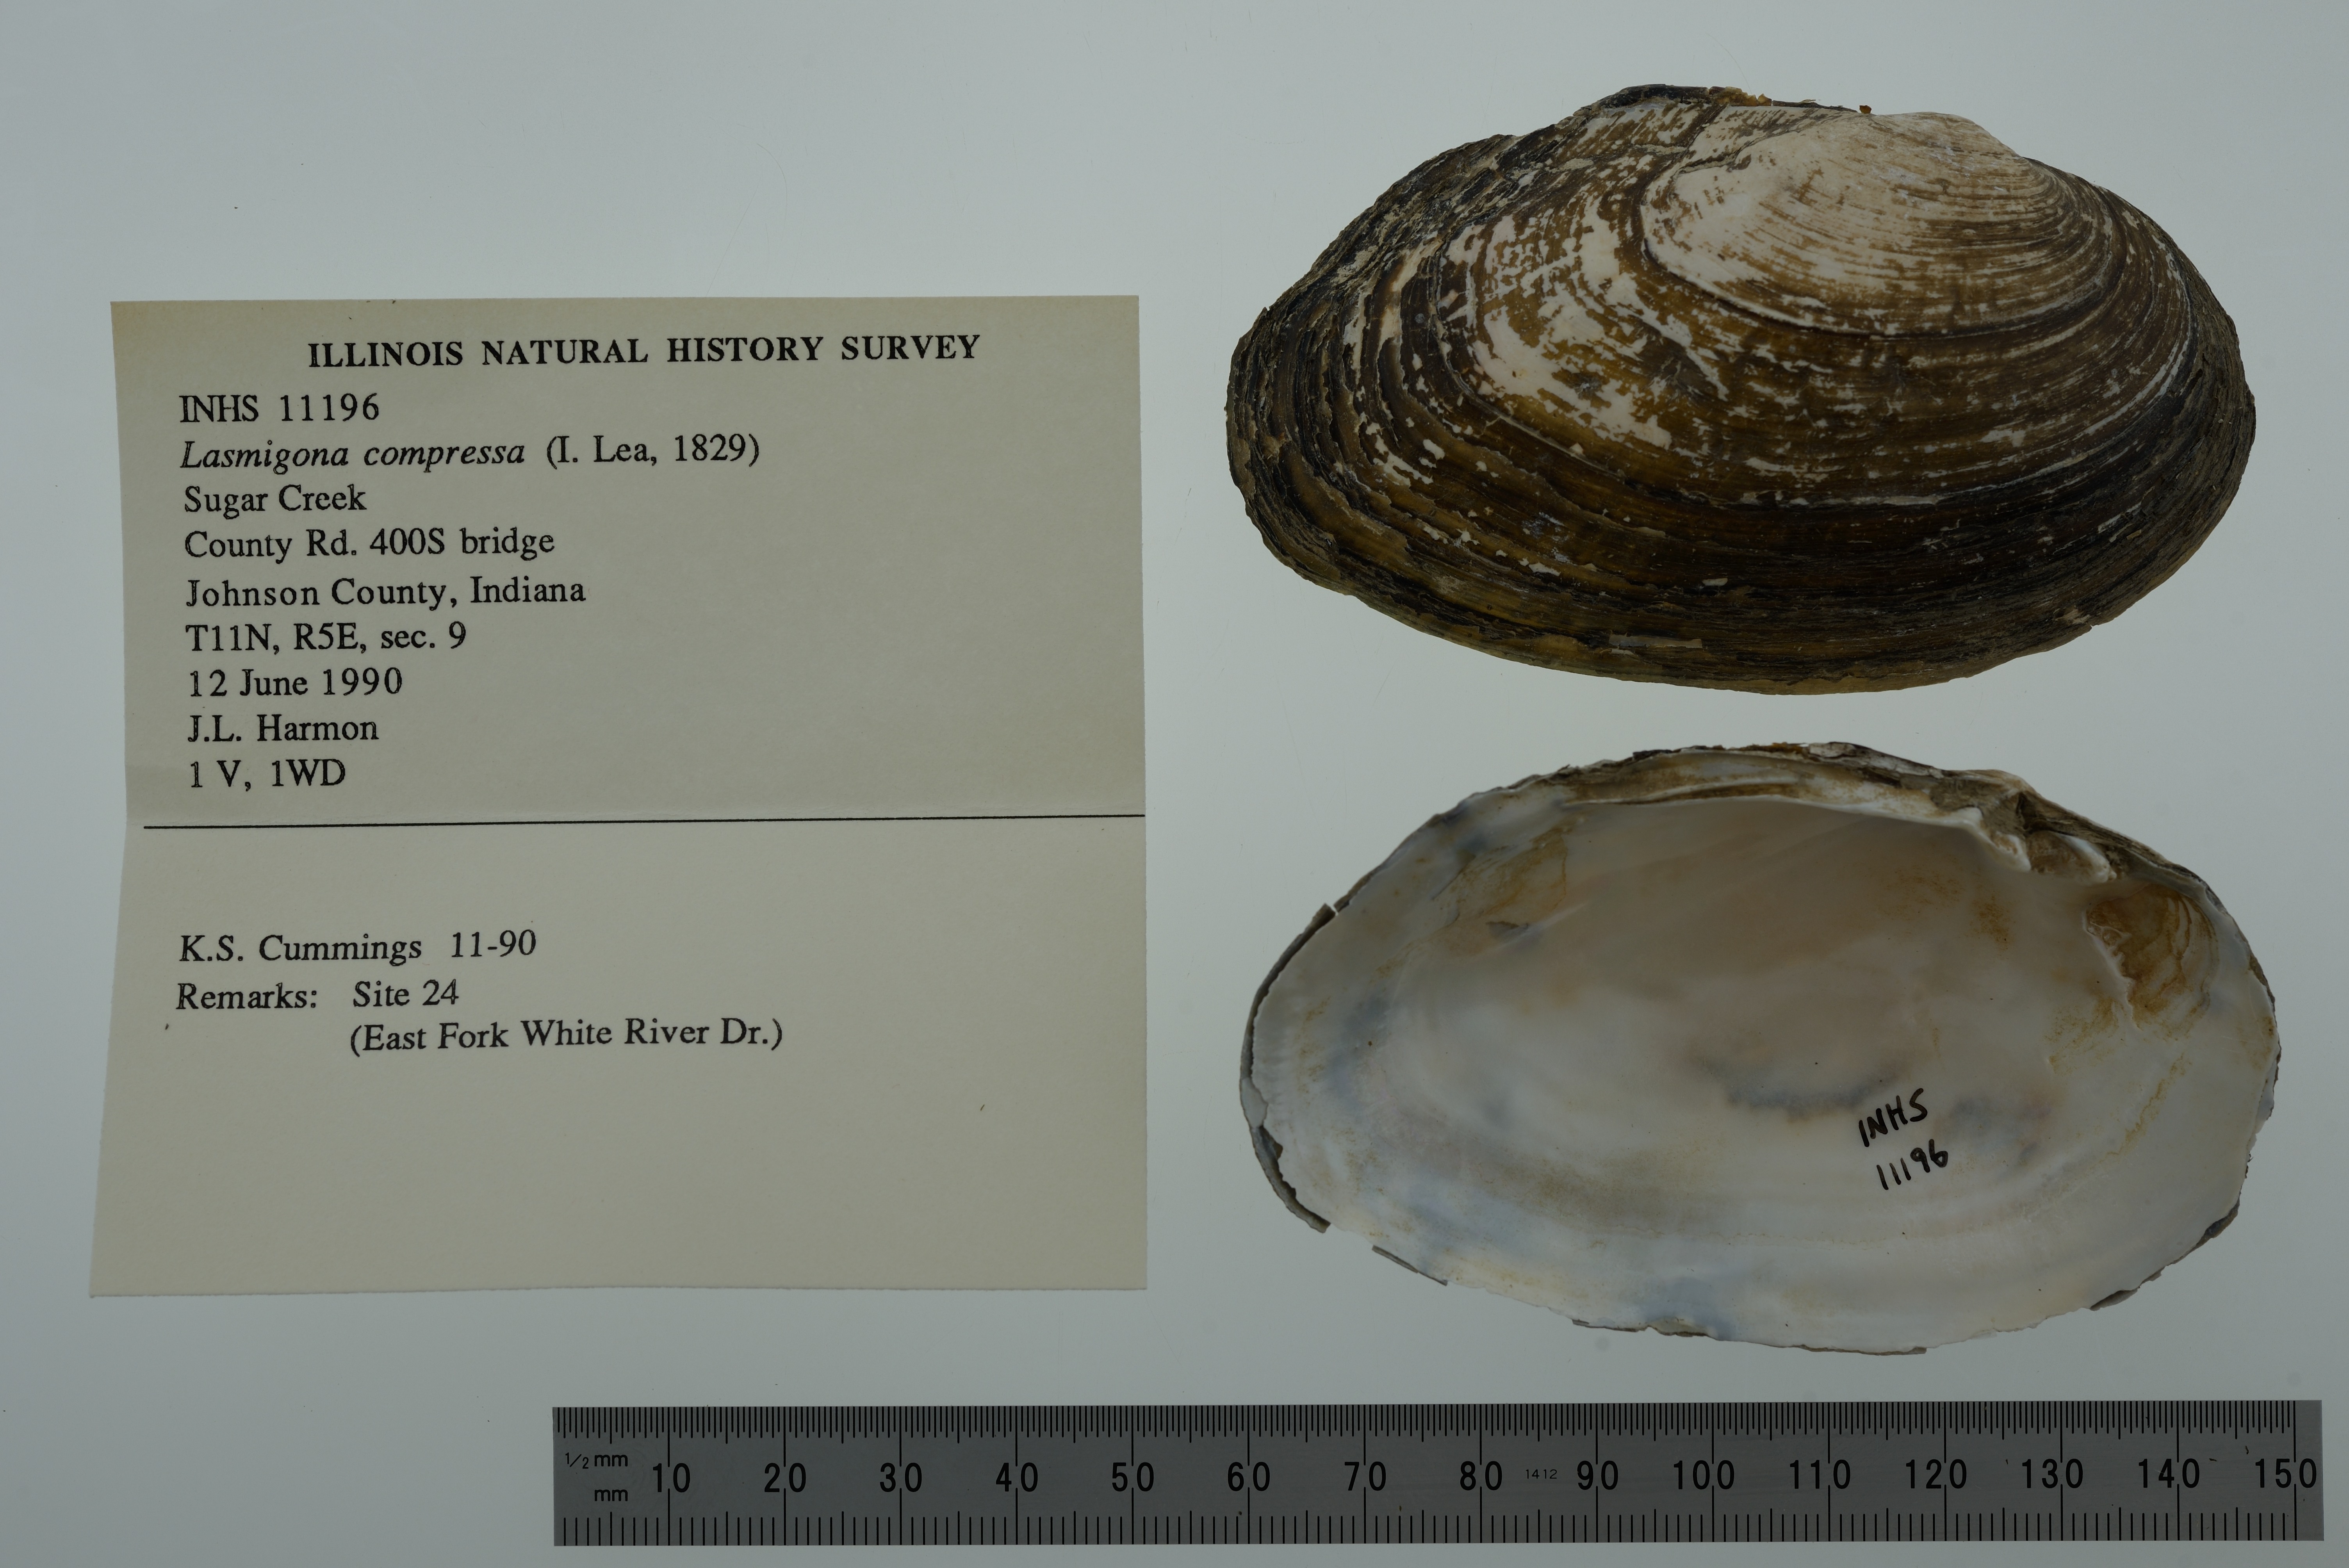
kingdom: Animalia
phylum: Mollusca
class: Bivalvia
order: Unionida
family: Unionidae
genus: Lasmigona
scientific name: Lasmigona compressa
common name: Creek heelsplitter
